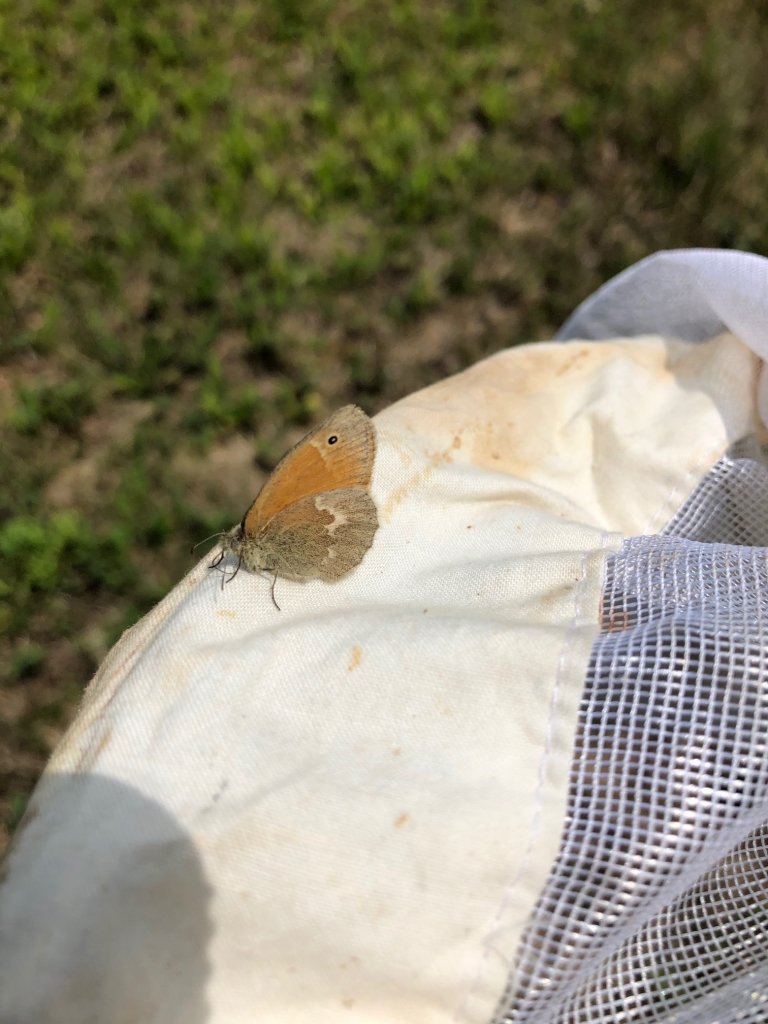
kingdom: Animalia
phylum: Arthropoda
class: Insecta
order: Lepidoptera
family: Nymphalidae
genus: Coenonympha
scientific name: Coenonympha tullia
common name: Large Heath
